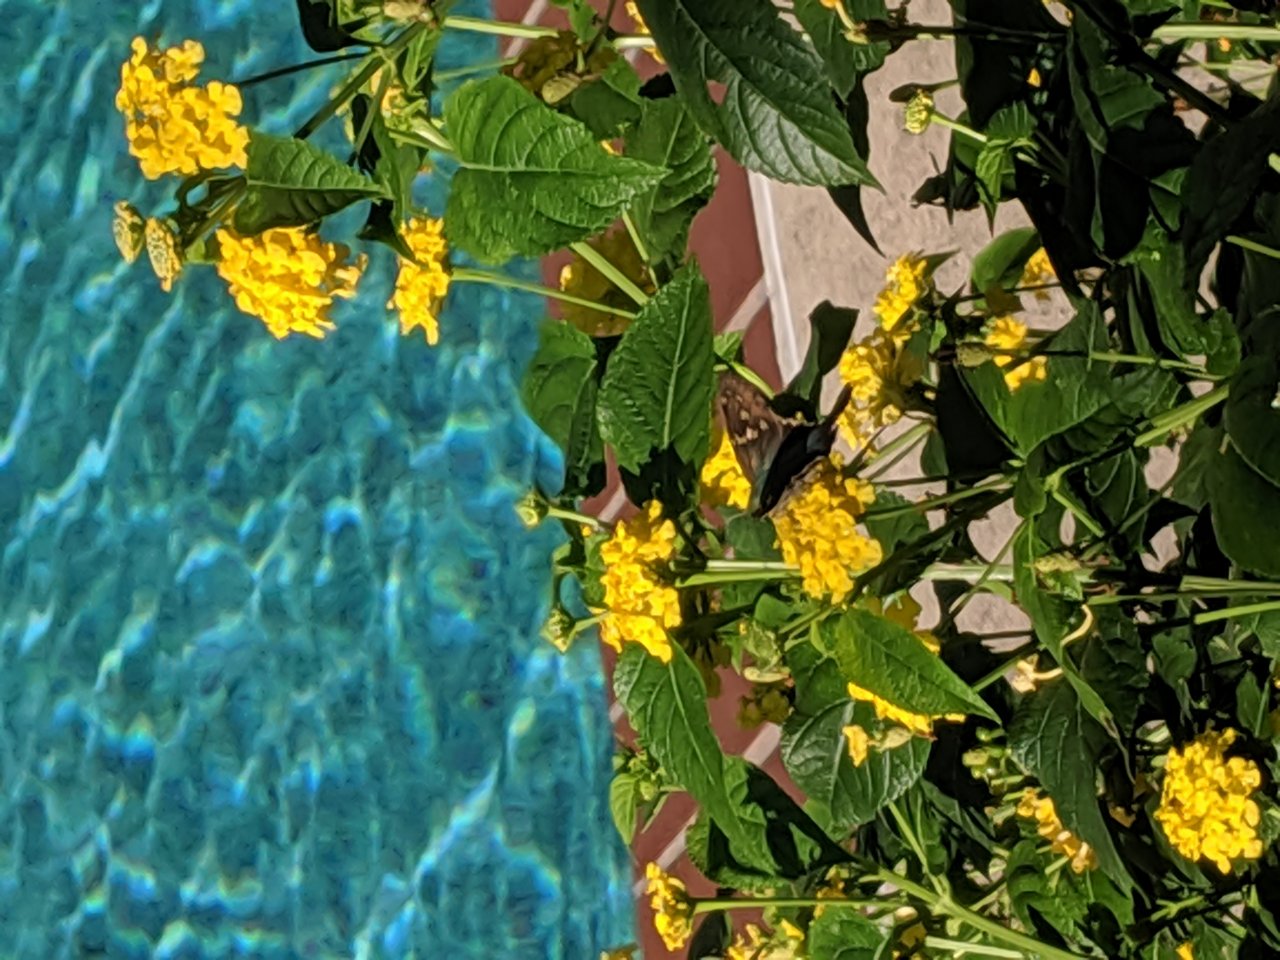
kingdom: Animalia
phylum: Arthropoda
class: Insecta
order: Lepidoptera
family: Hesperiidae
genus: Urbanus
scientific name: Urbanus proteus
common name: Long-tailed Skipper
